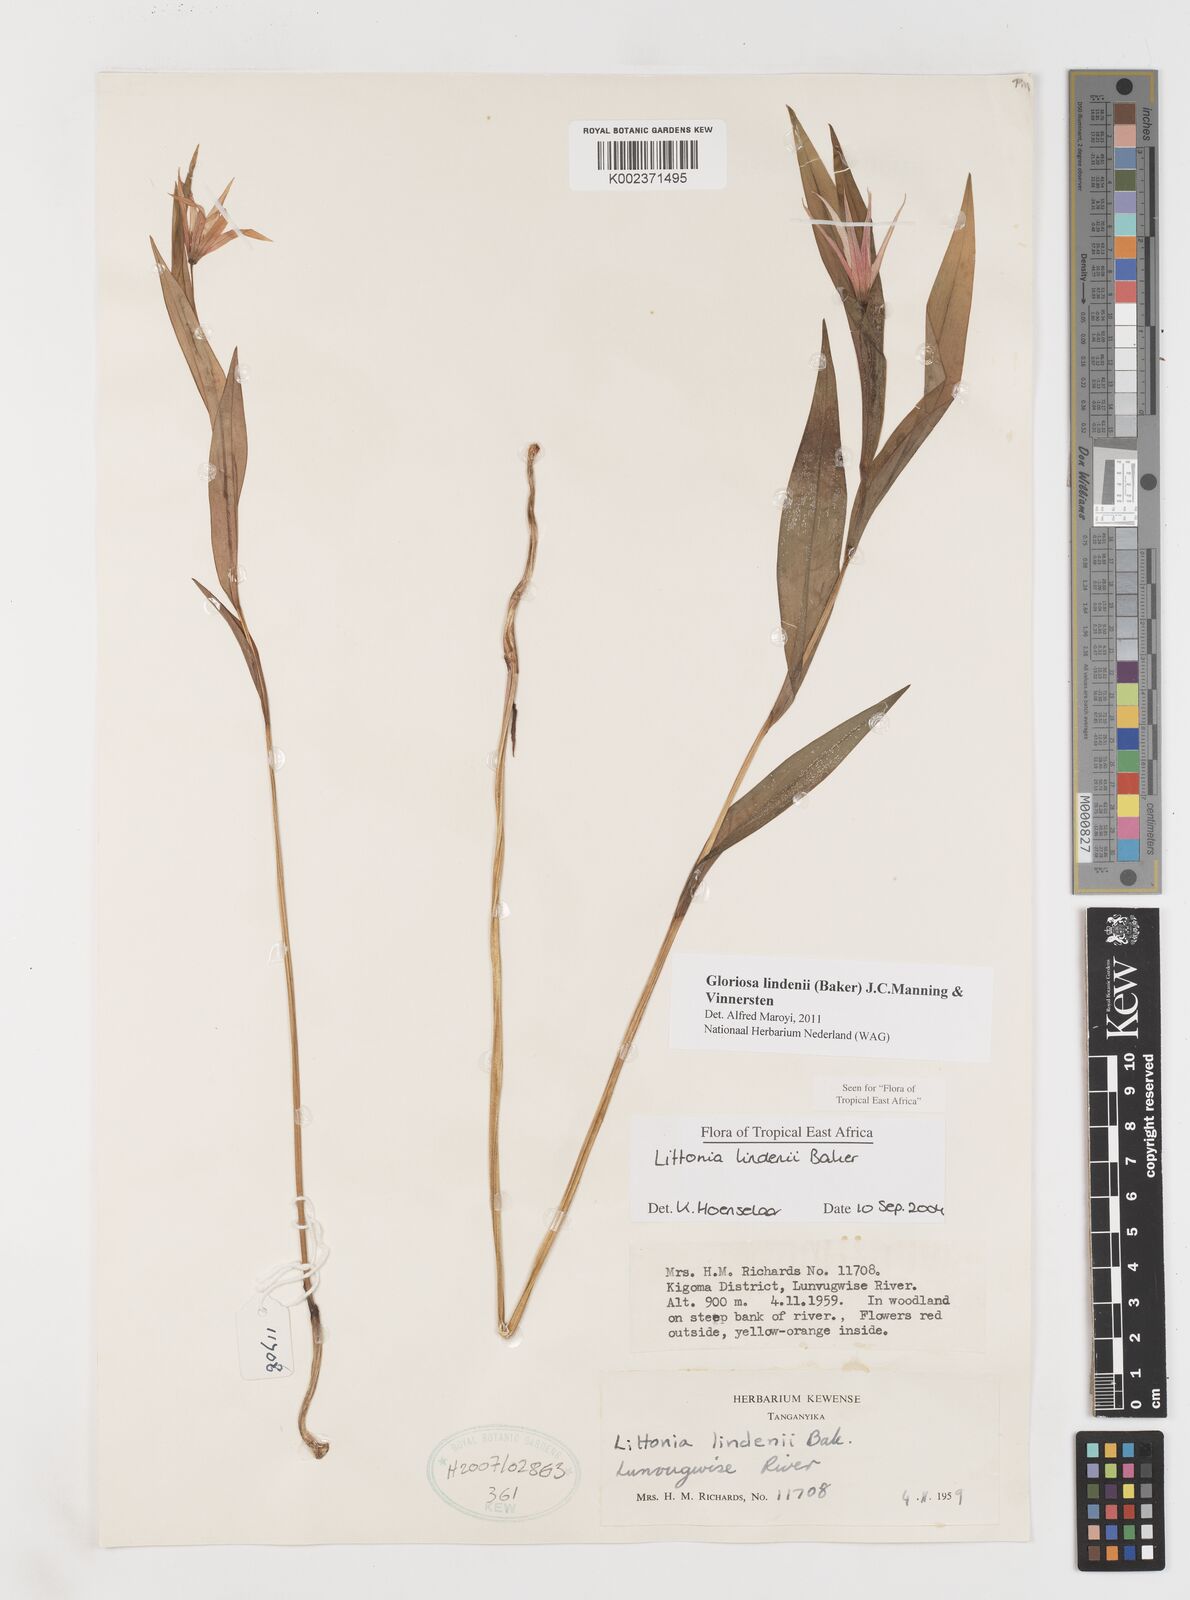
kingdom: Plantae
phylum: Tracheophyta
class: Liliopsida
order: Liliales
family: Colchicaceae
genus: Gloriosa
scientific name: Gloriosa lindenii
